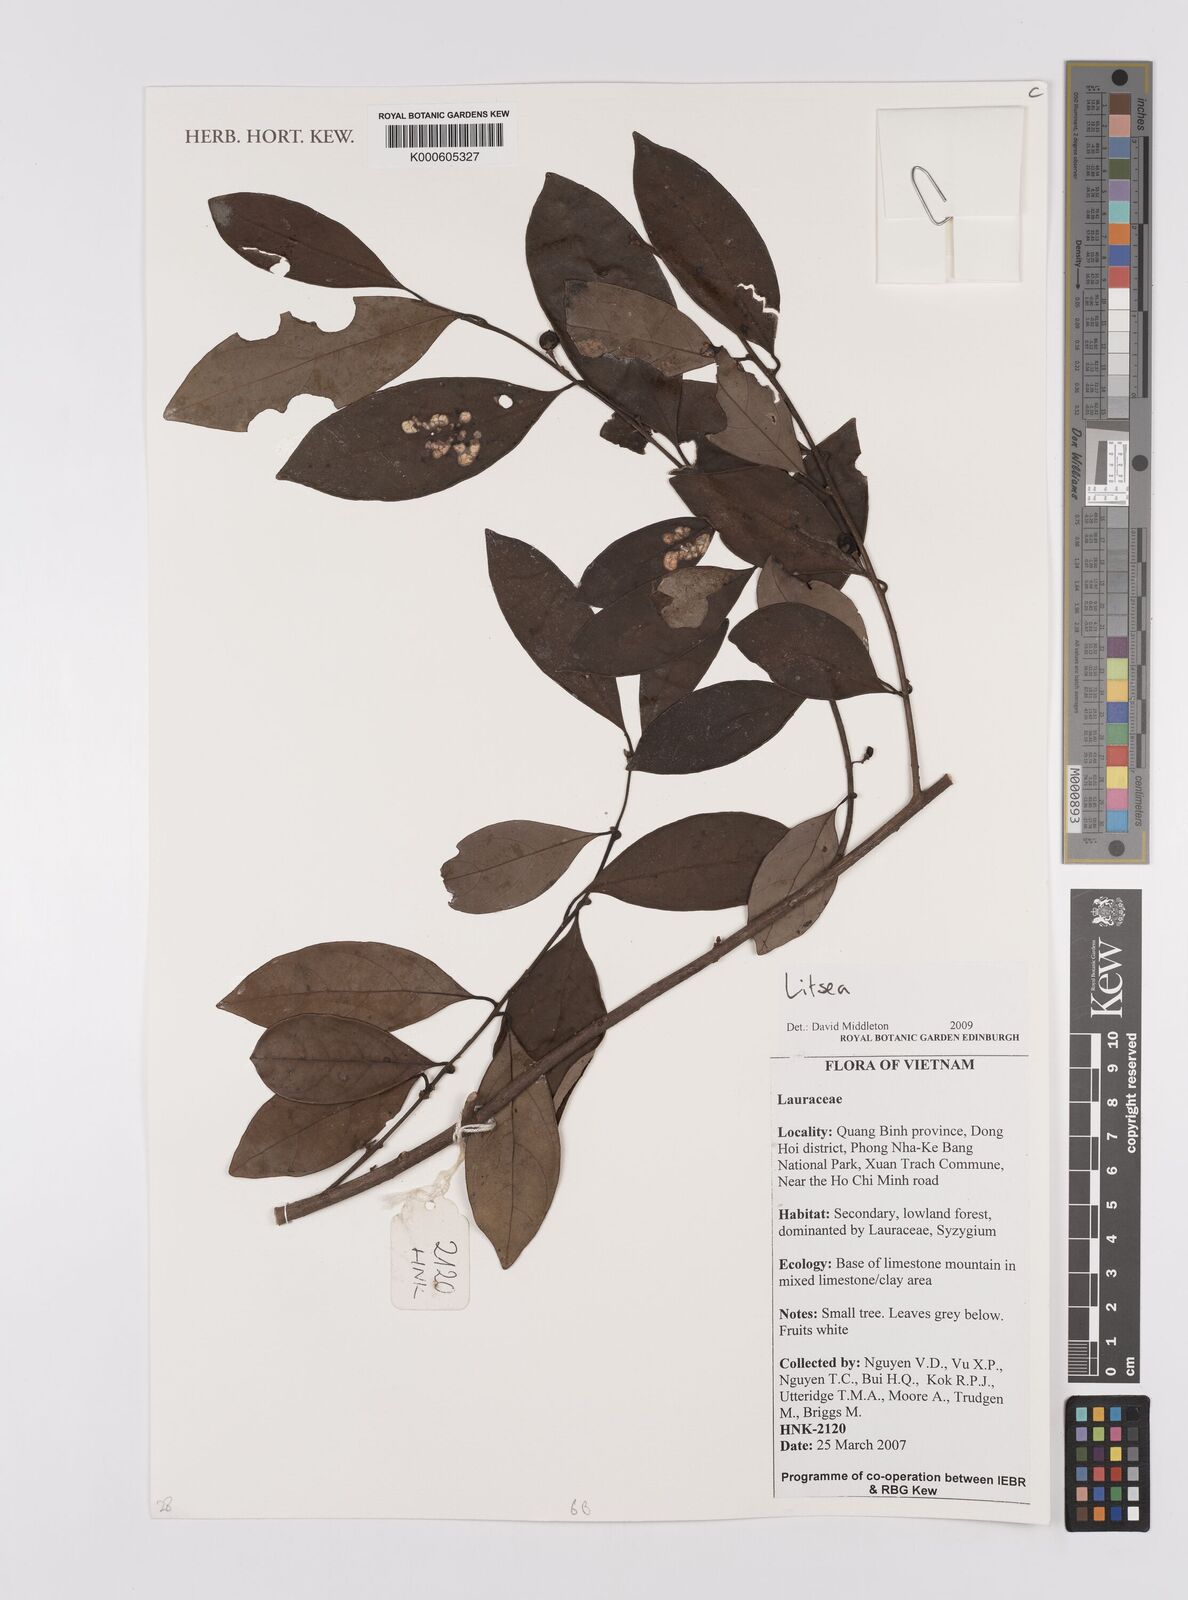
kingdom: Plantae
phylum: Tracheophyta
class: Magnoliopsida
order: Laurales
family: Lauraceae
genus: Litsea
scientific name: Litsea
